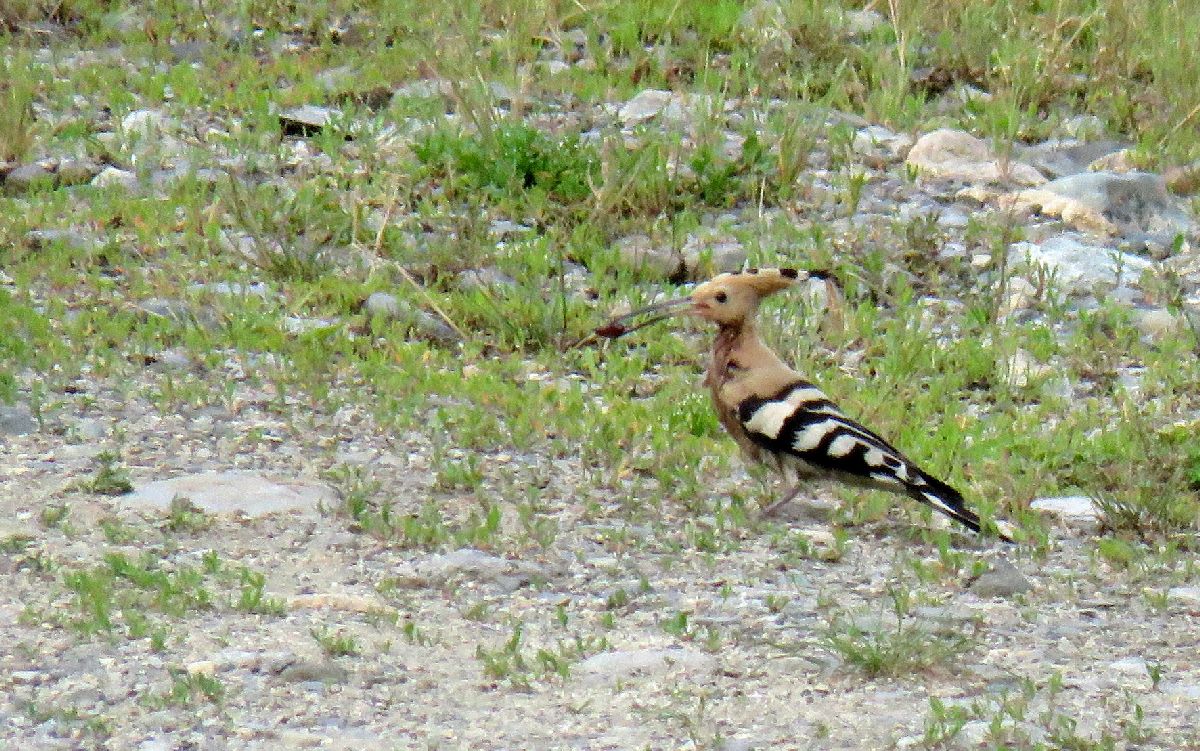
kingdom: Animalia
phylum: Chordata
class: Aves
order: Bucerotiformes
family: Upupidae
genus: Upupa
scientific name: Upupa epops
